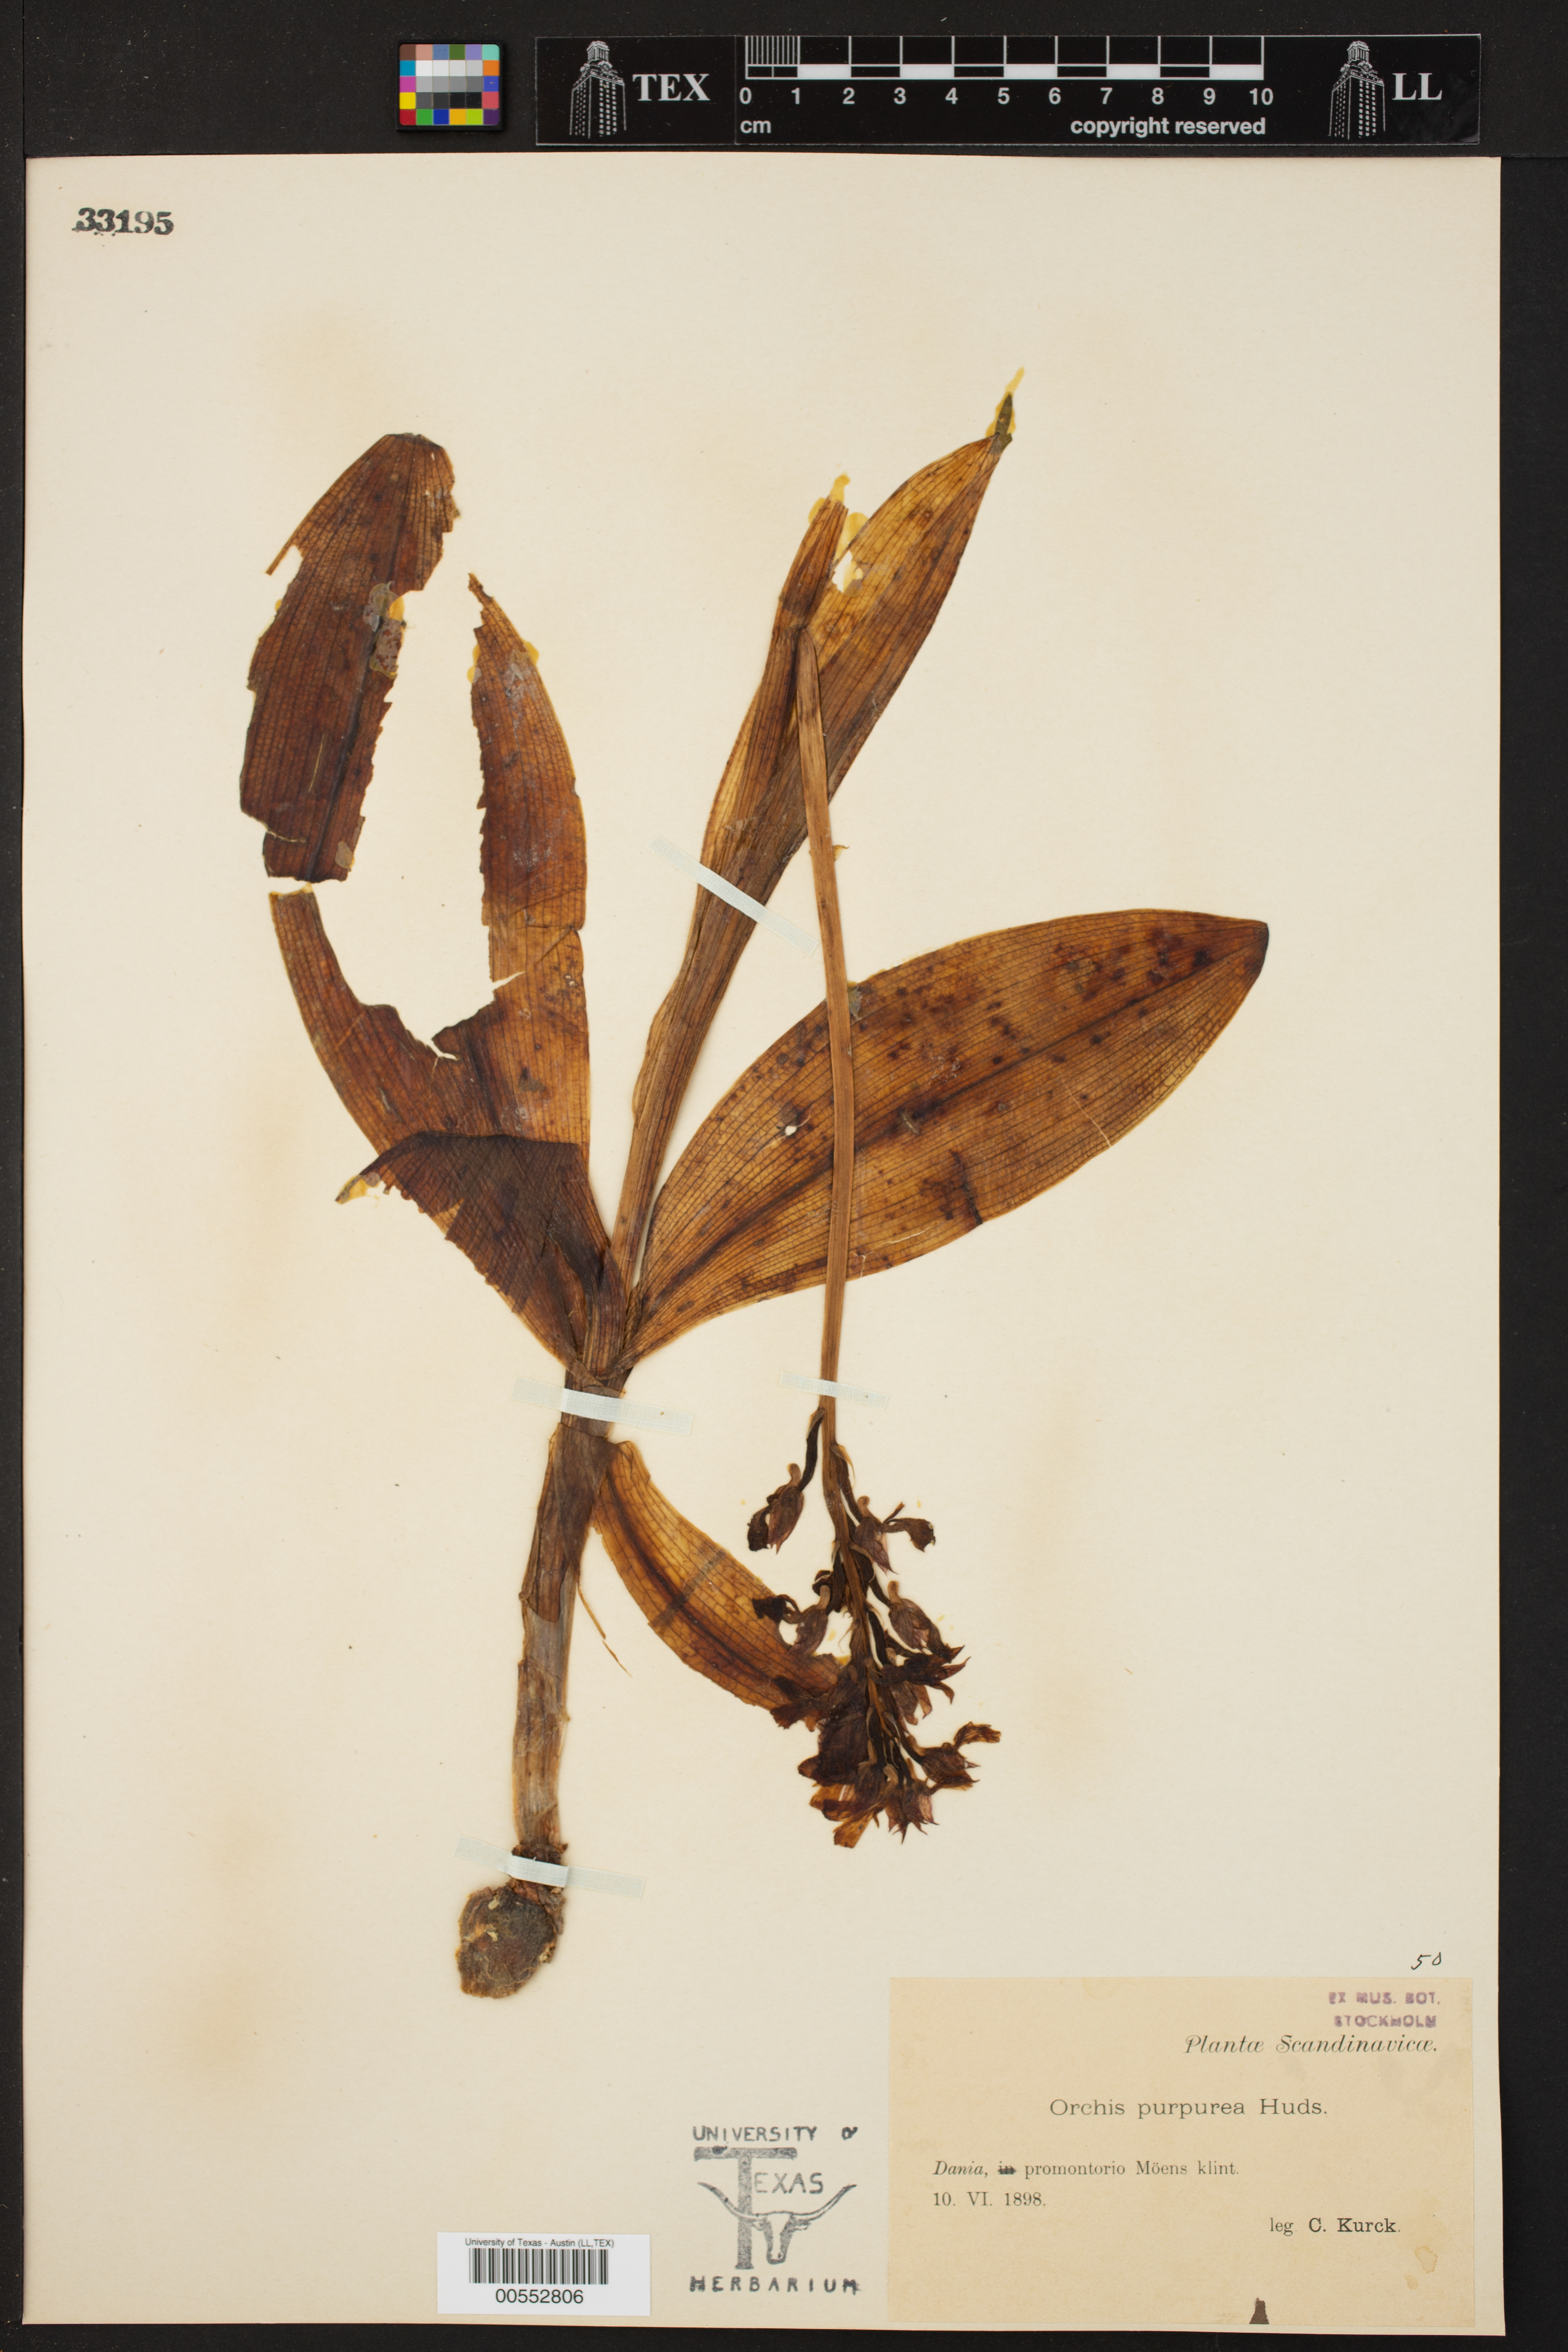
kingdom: Plantae
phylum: Tracheophyta
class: Liliopsida
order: Asparagales
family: Orchidaceae
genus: Orchis
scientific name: Orchis purpurea
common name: Lady orchid
